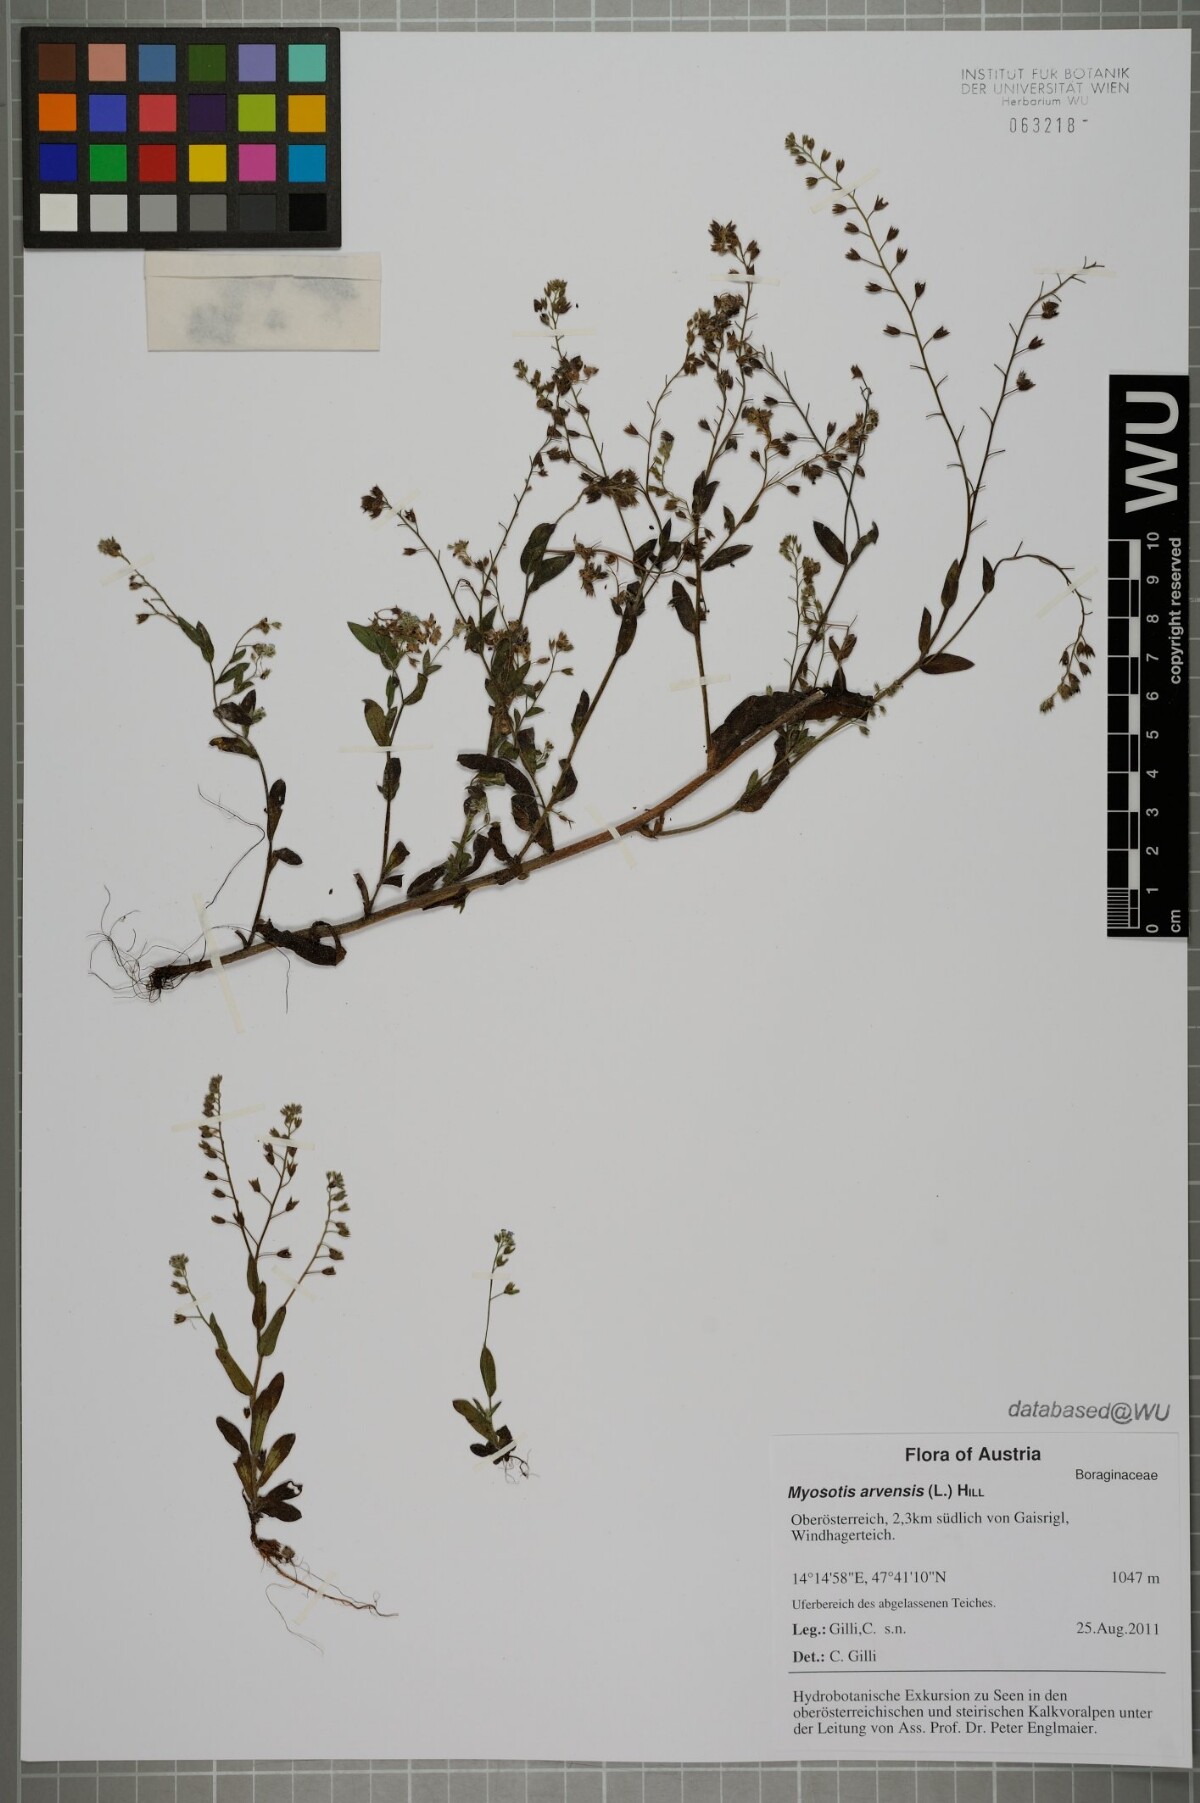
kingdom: Plantae
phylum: Tracheophyta
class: Magnoliopsida
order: Boraginales
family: Boraginaceae
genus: Myosotis
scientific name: Myosotis arvensis
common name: Field forget-me-not
